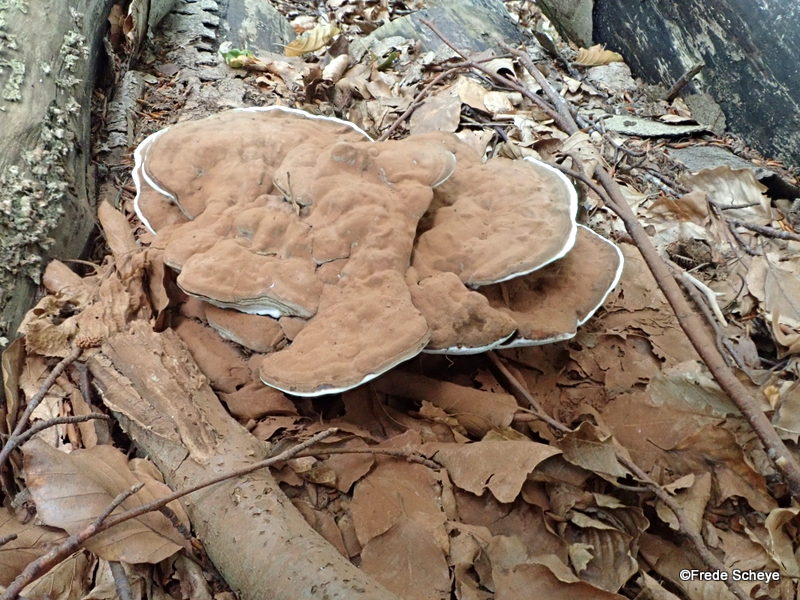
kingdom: Fungi
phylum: Basidiomycota
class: Agaricomycetes
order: Polyporales
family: Polyporaceae
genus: Ganoderma
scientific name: Ganoderma applanatum
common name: flad lakporesvamp
